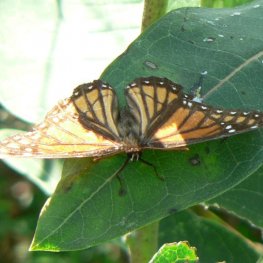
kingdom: Animalia
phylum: Arthropoda
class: Insecta
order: Lepidoptera
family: Nymphalidae
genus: Limenitis
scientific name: Limenitis archippus
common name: Viceroy
